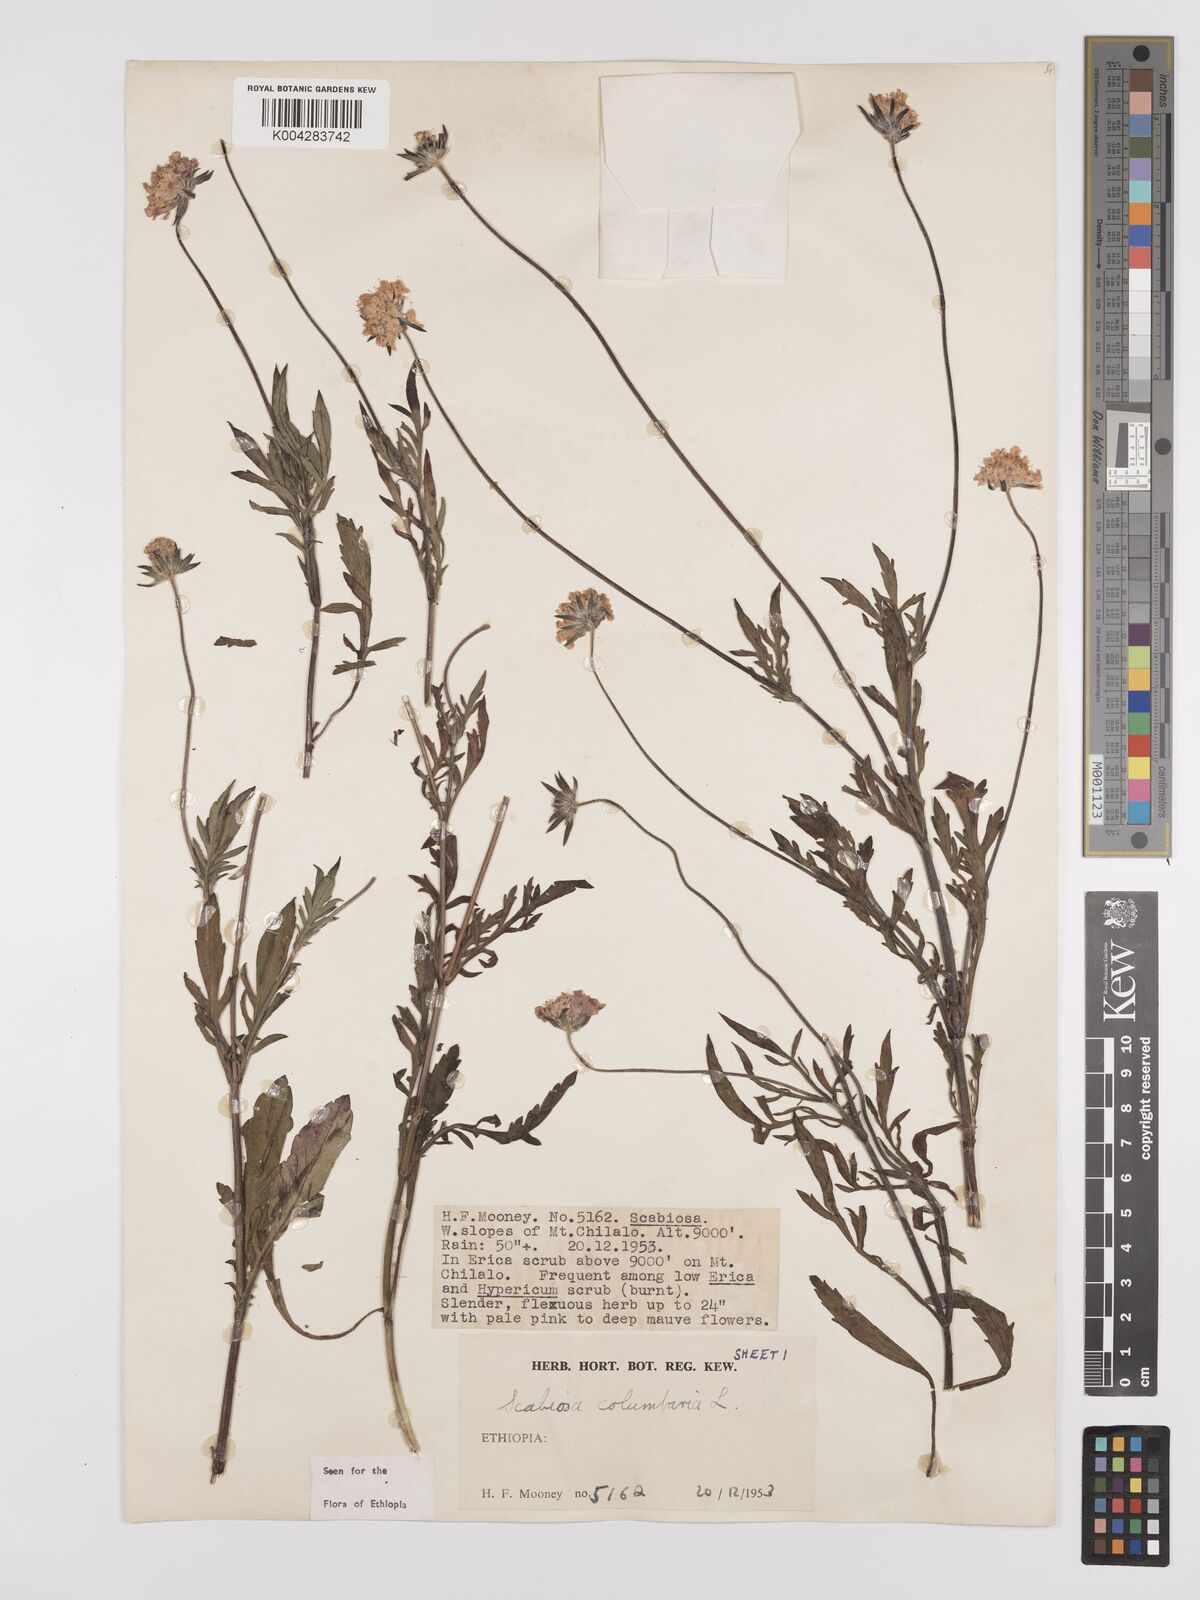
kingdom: Plantae
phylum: Tracheophyta
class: Magnoliopsida
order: Dipsacales
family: Caprifoliaceae
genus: Scabiosa
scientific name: Scabiosa columbaria
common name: Small scabious
